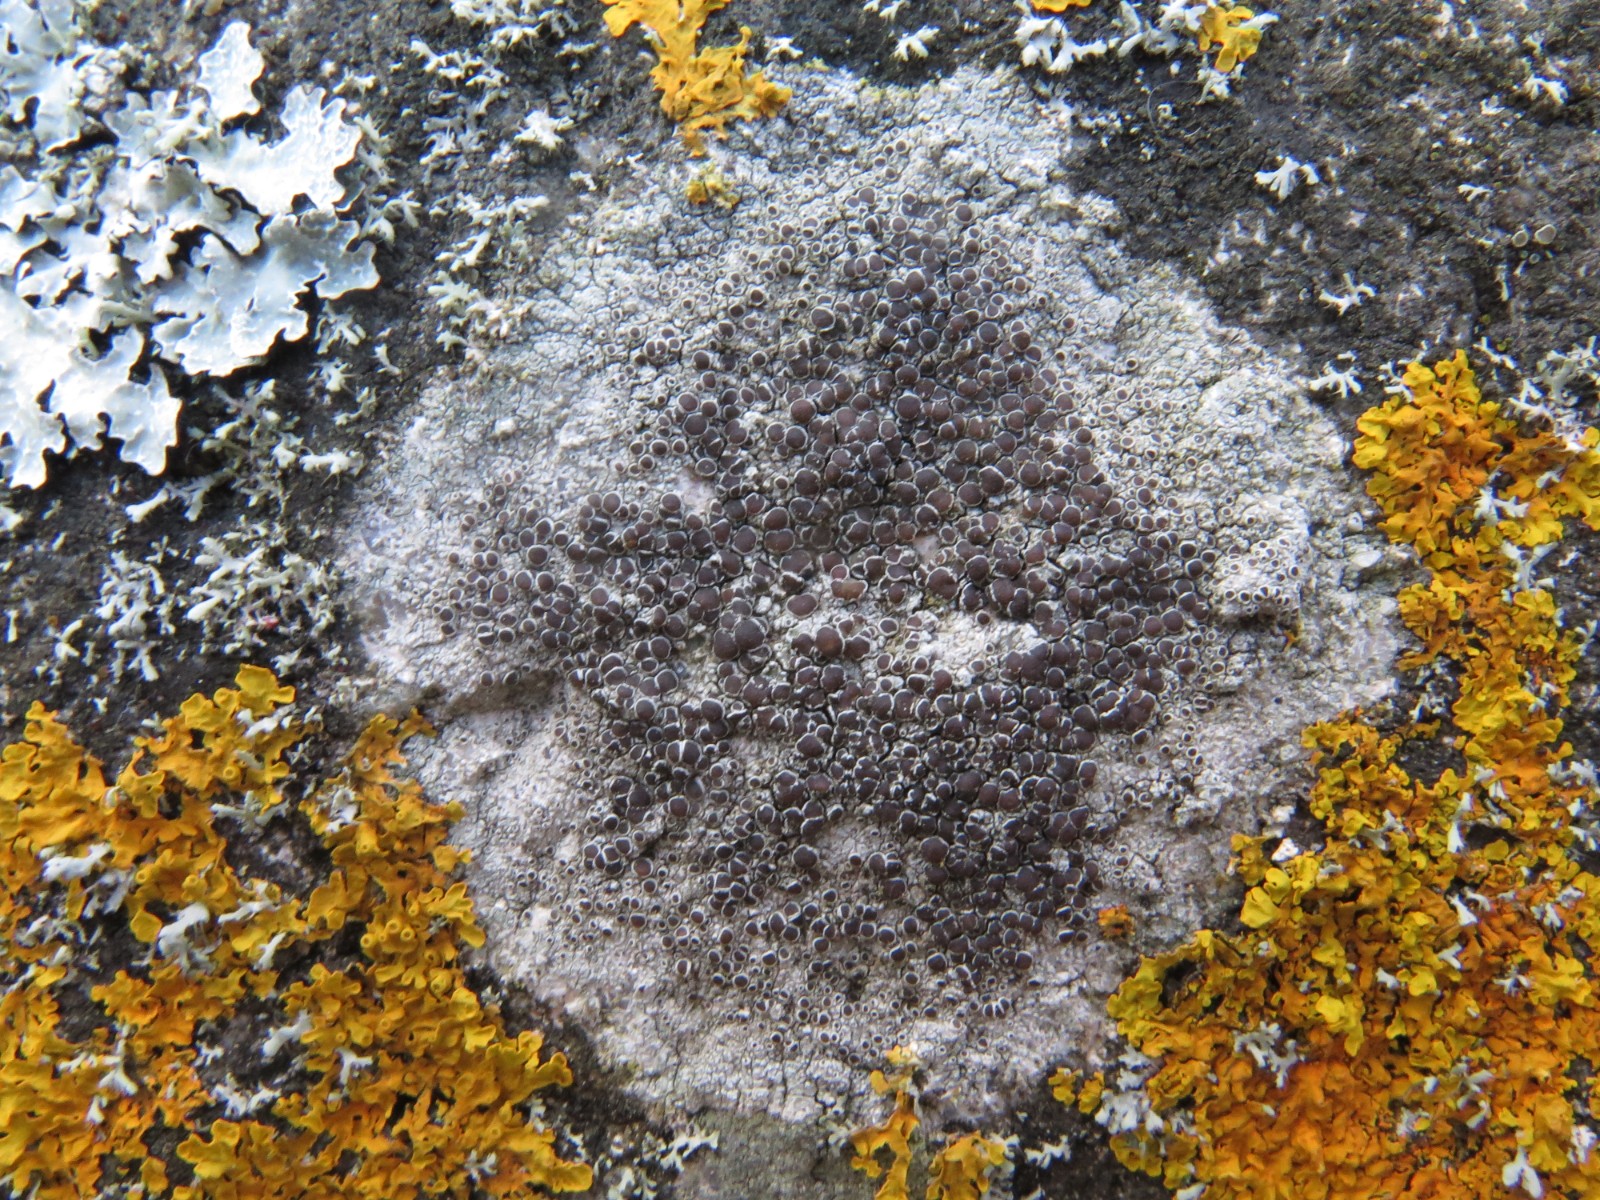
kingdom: Fungi
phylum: Ascomycota
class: Lecanoromycetes
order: Lecanorales
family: Lecanoraceae
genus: Lecanora
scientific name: Lecanora campestris
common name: mur-kantskivelav
